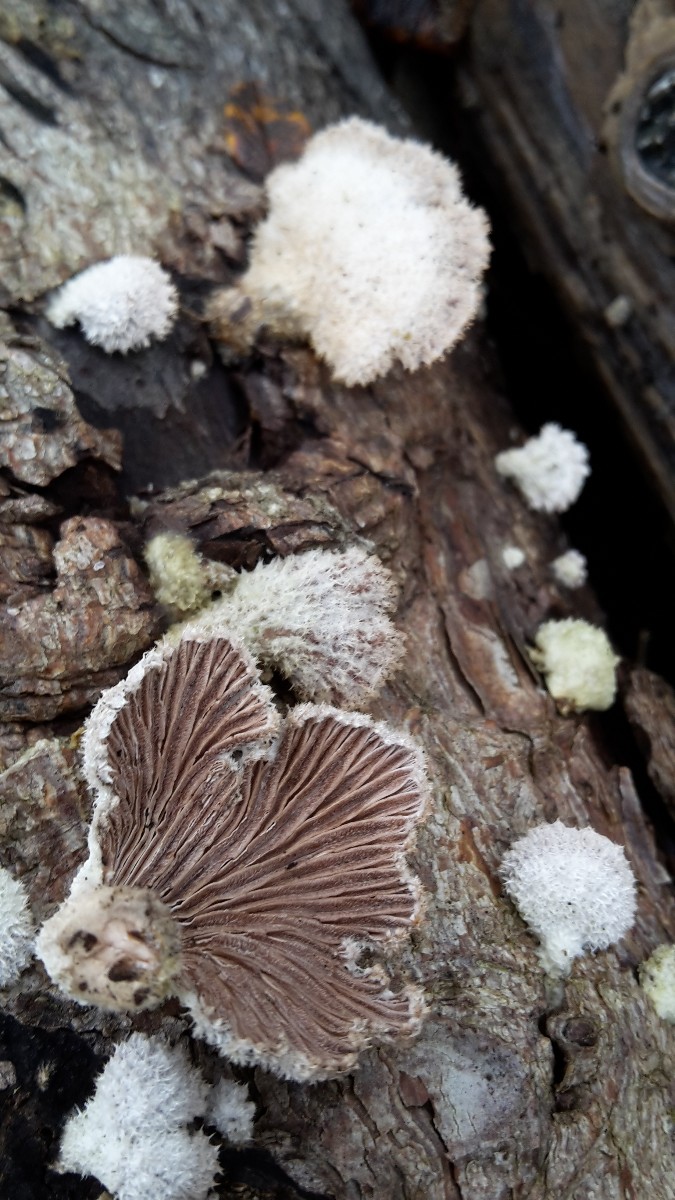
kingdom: Fungi
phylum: Basidiomycota
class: Agaricomycetes
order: Agaricales
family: Schizophyllaceae
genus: Schizophyllum
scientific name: Schizophyllum commune
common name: kløvblad
